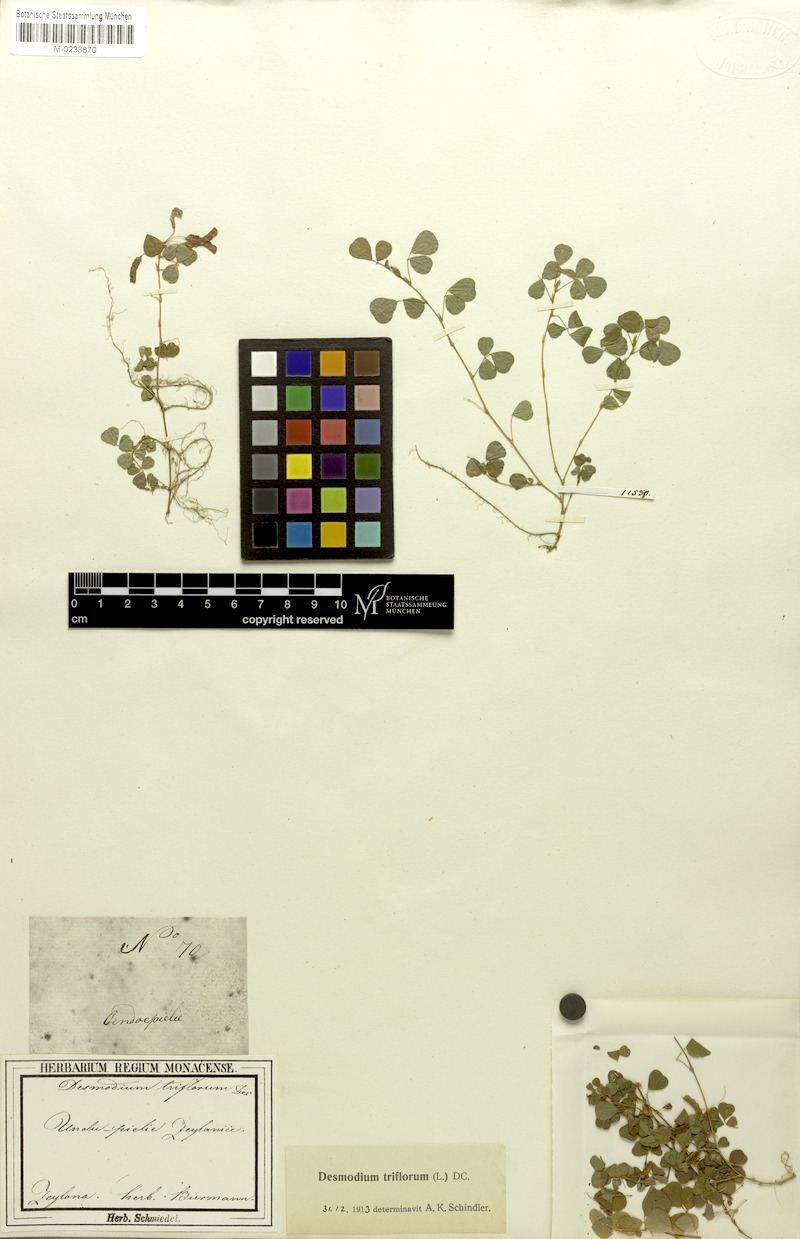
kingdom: Plantae
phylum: Tracheophyta
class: Magnoliopsida
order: Fabales
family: Fabaceae
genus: Grona
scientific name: Grona triflora
